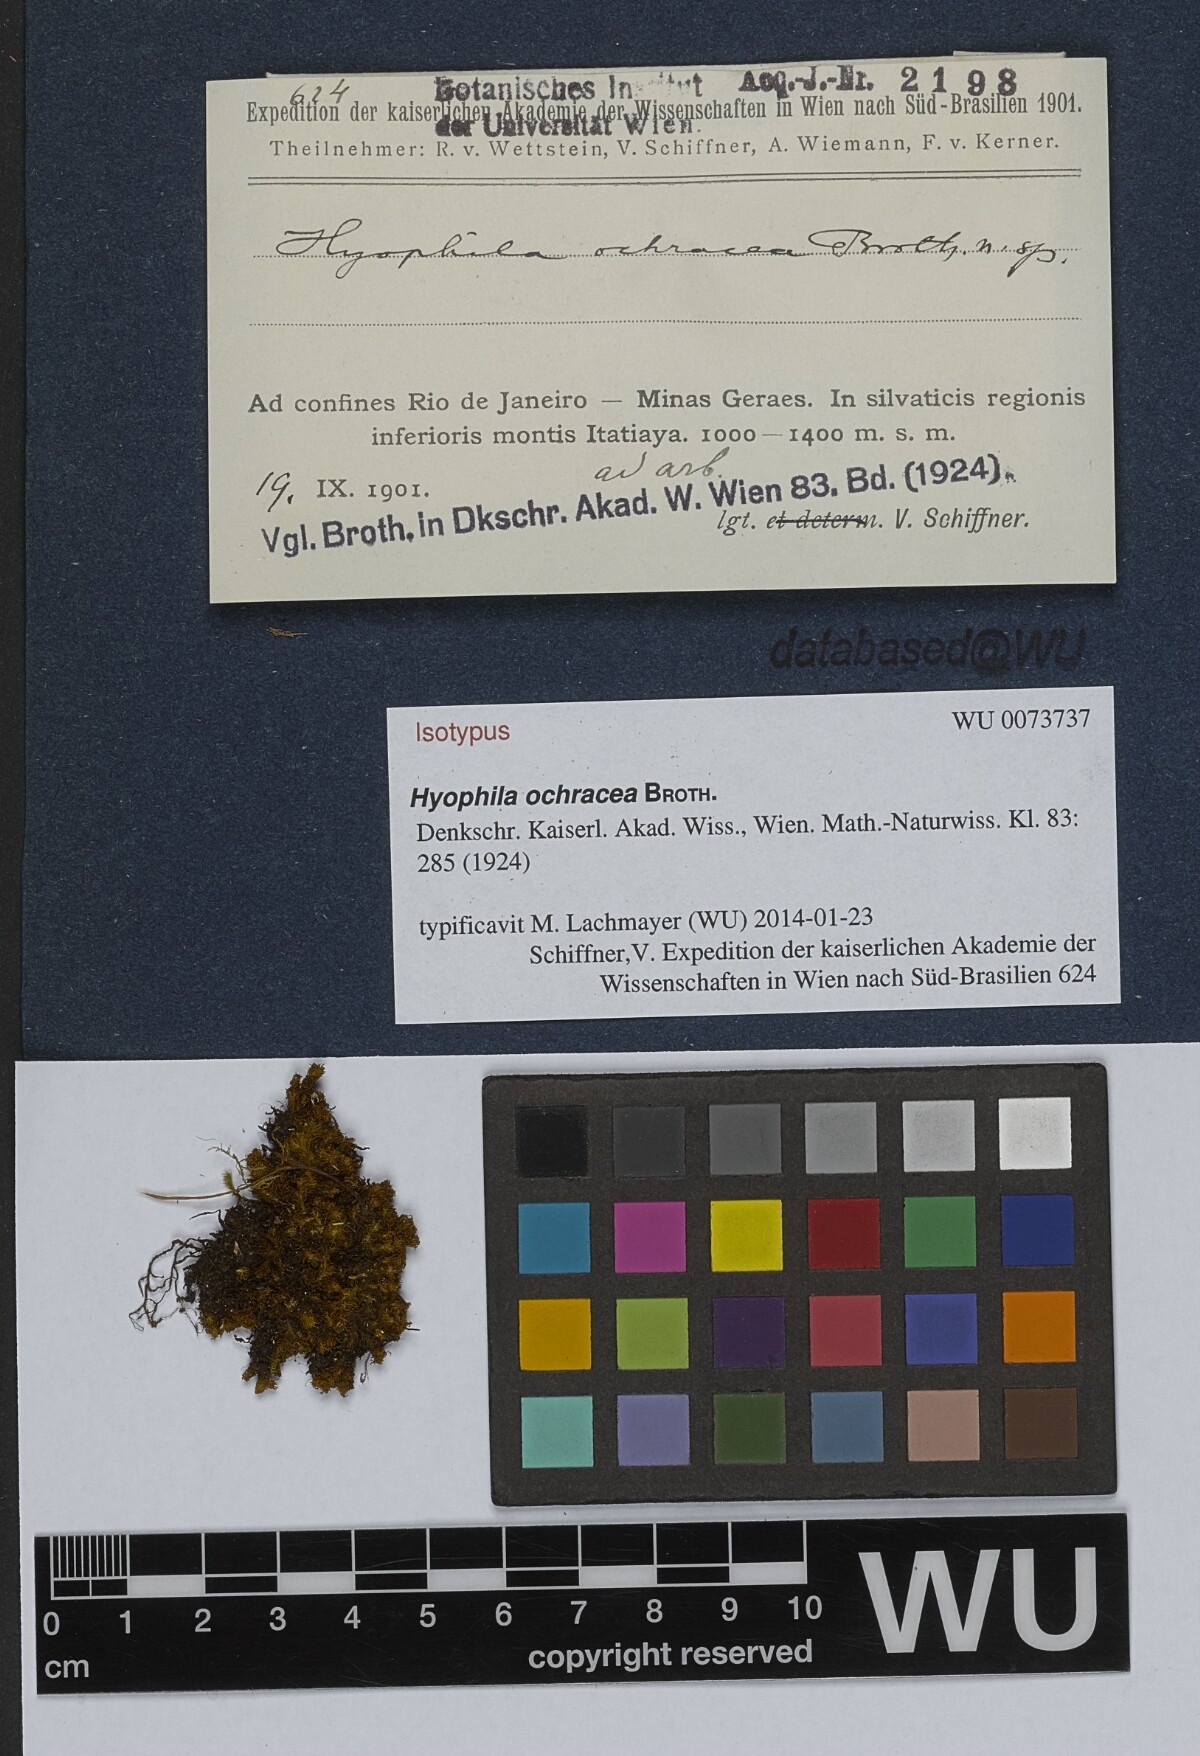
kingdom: Plantae
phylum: Bryophyta
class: Bryopsida
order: Pottiales
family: Pottiaceae
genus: Hyophila
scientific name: Hyophila ochracea
